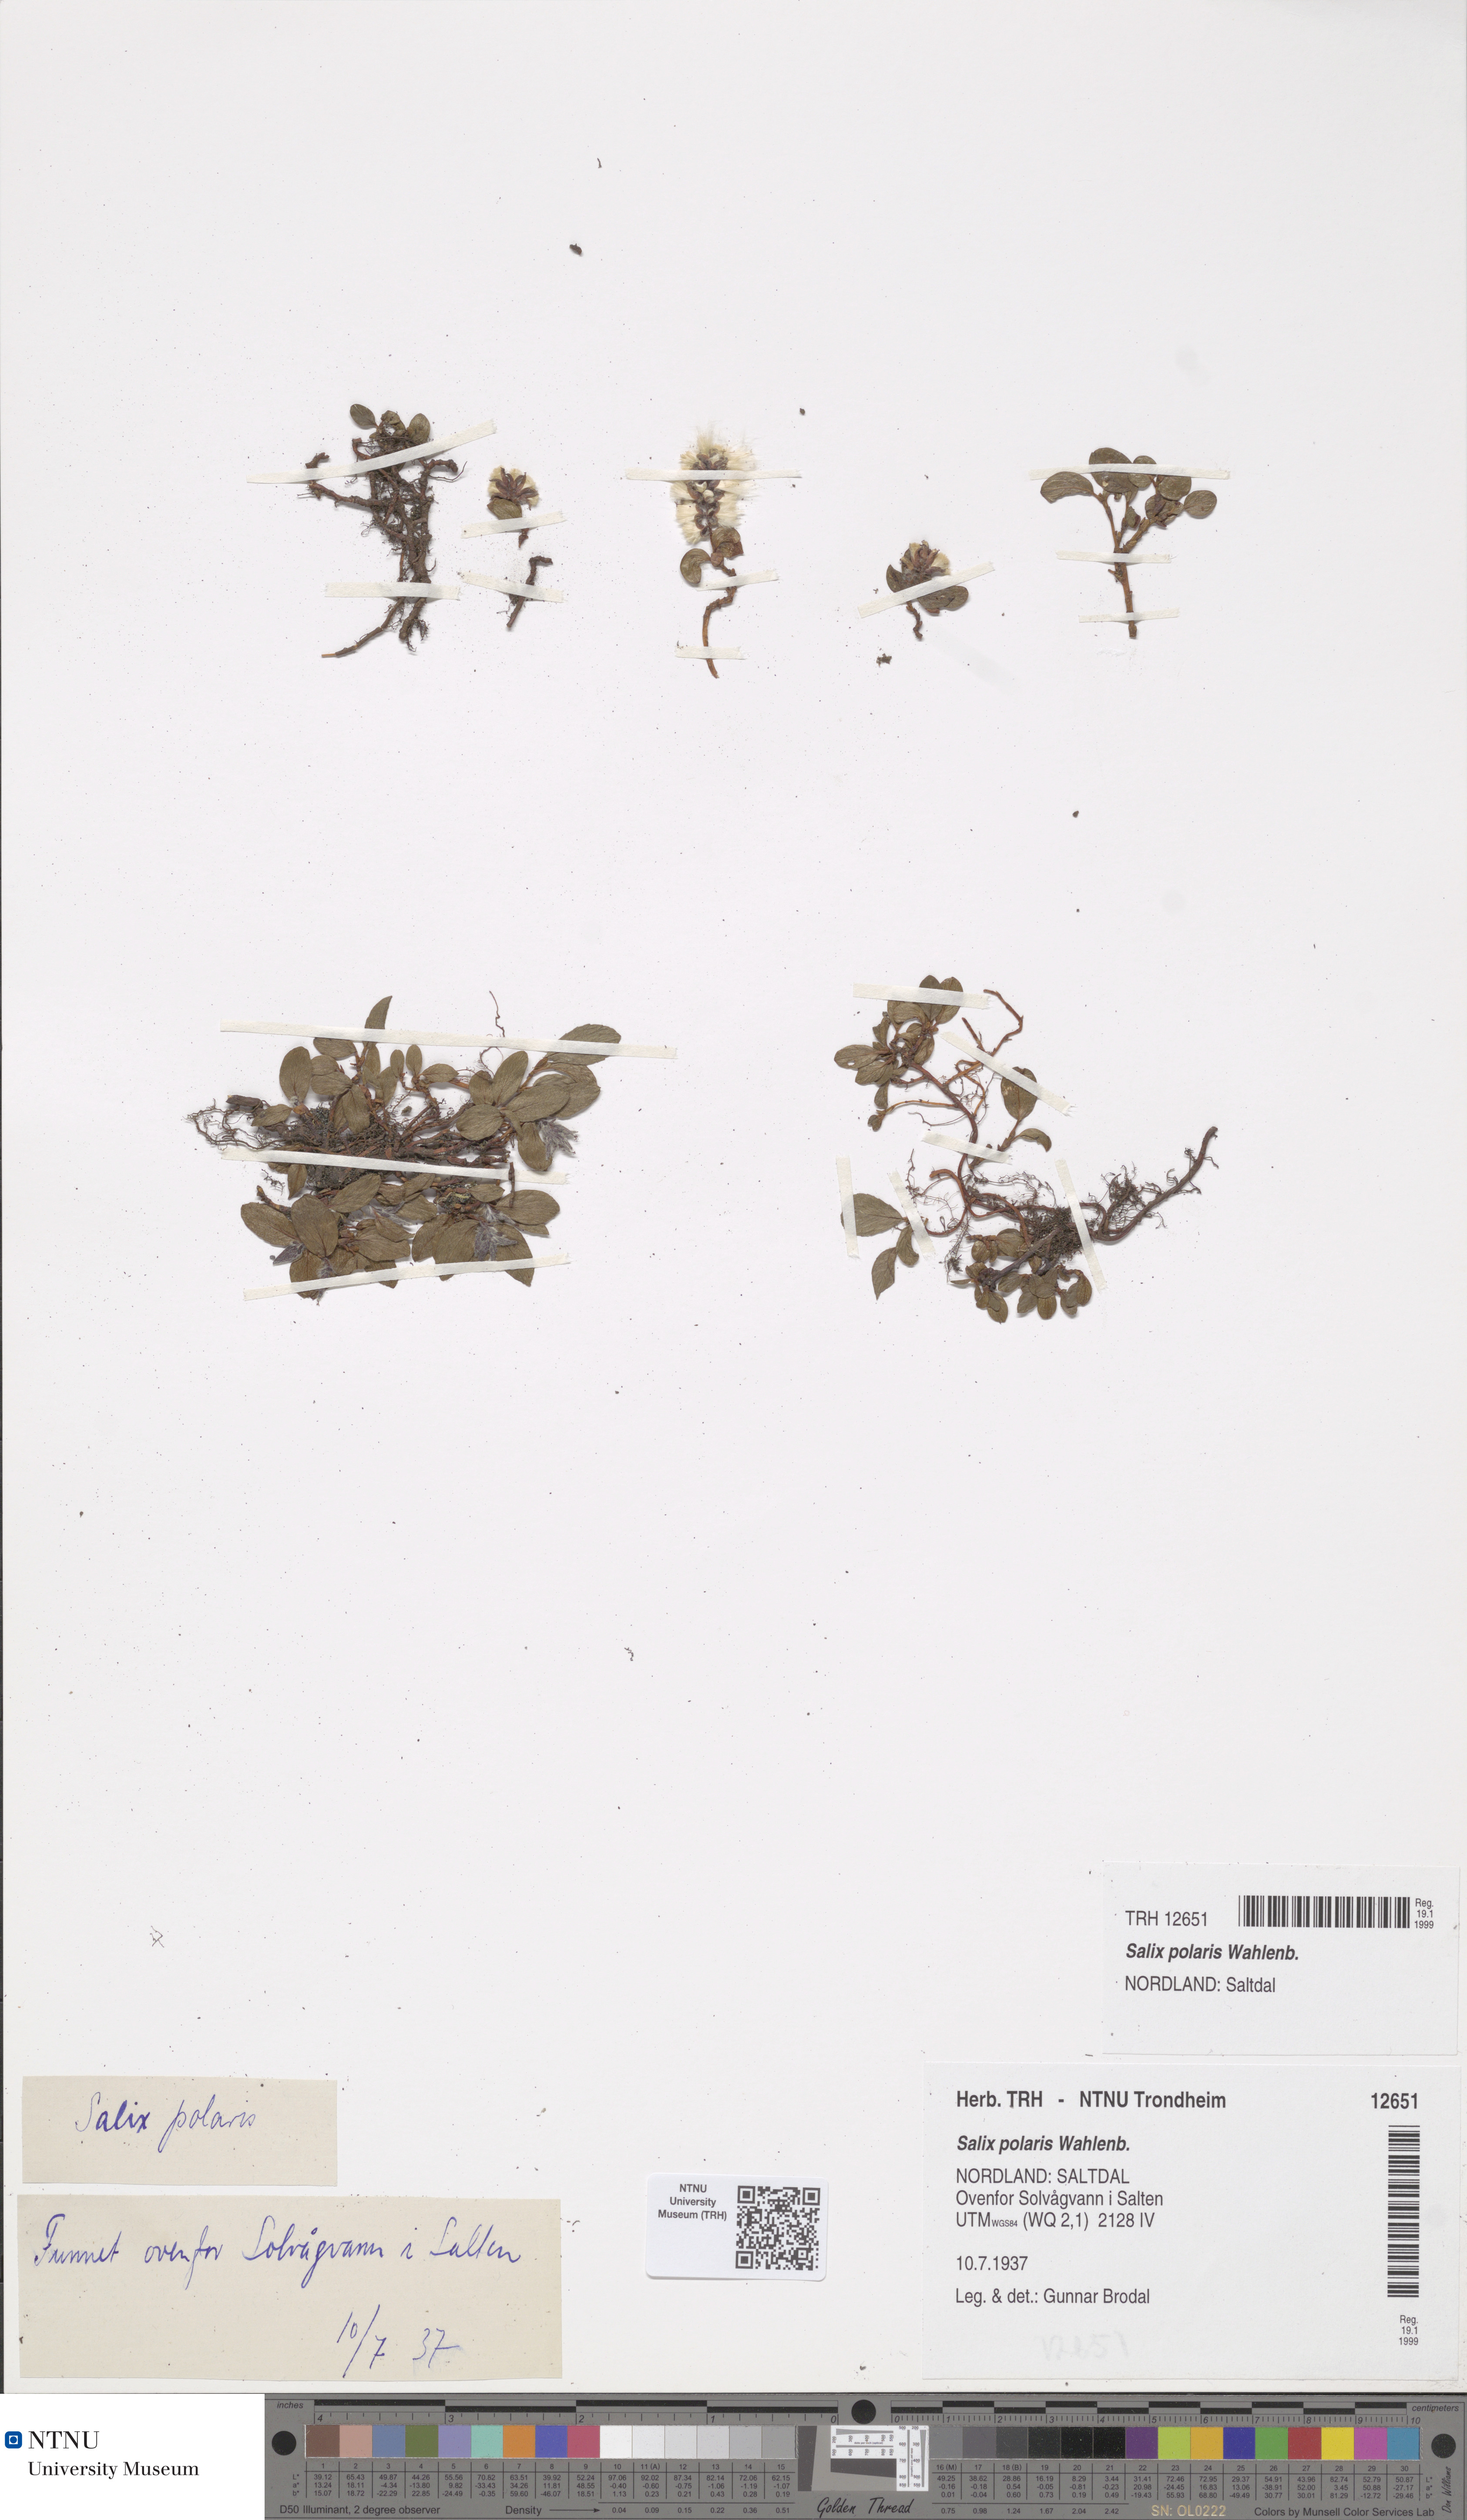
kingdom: Plantae
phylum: Tracheophyta
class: Magnoliopsida
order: Malpighiales
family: Salicaceae
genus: Salix
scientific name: Salix polaris
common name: Polar willow
